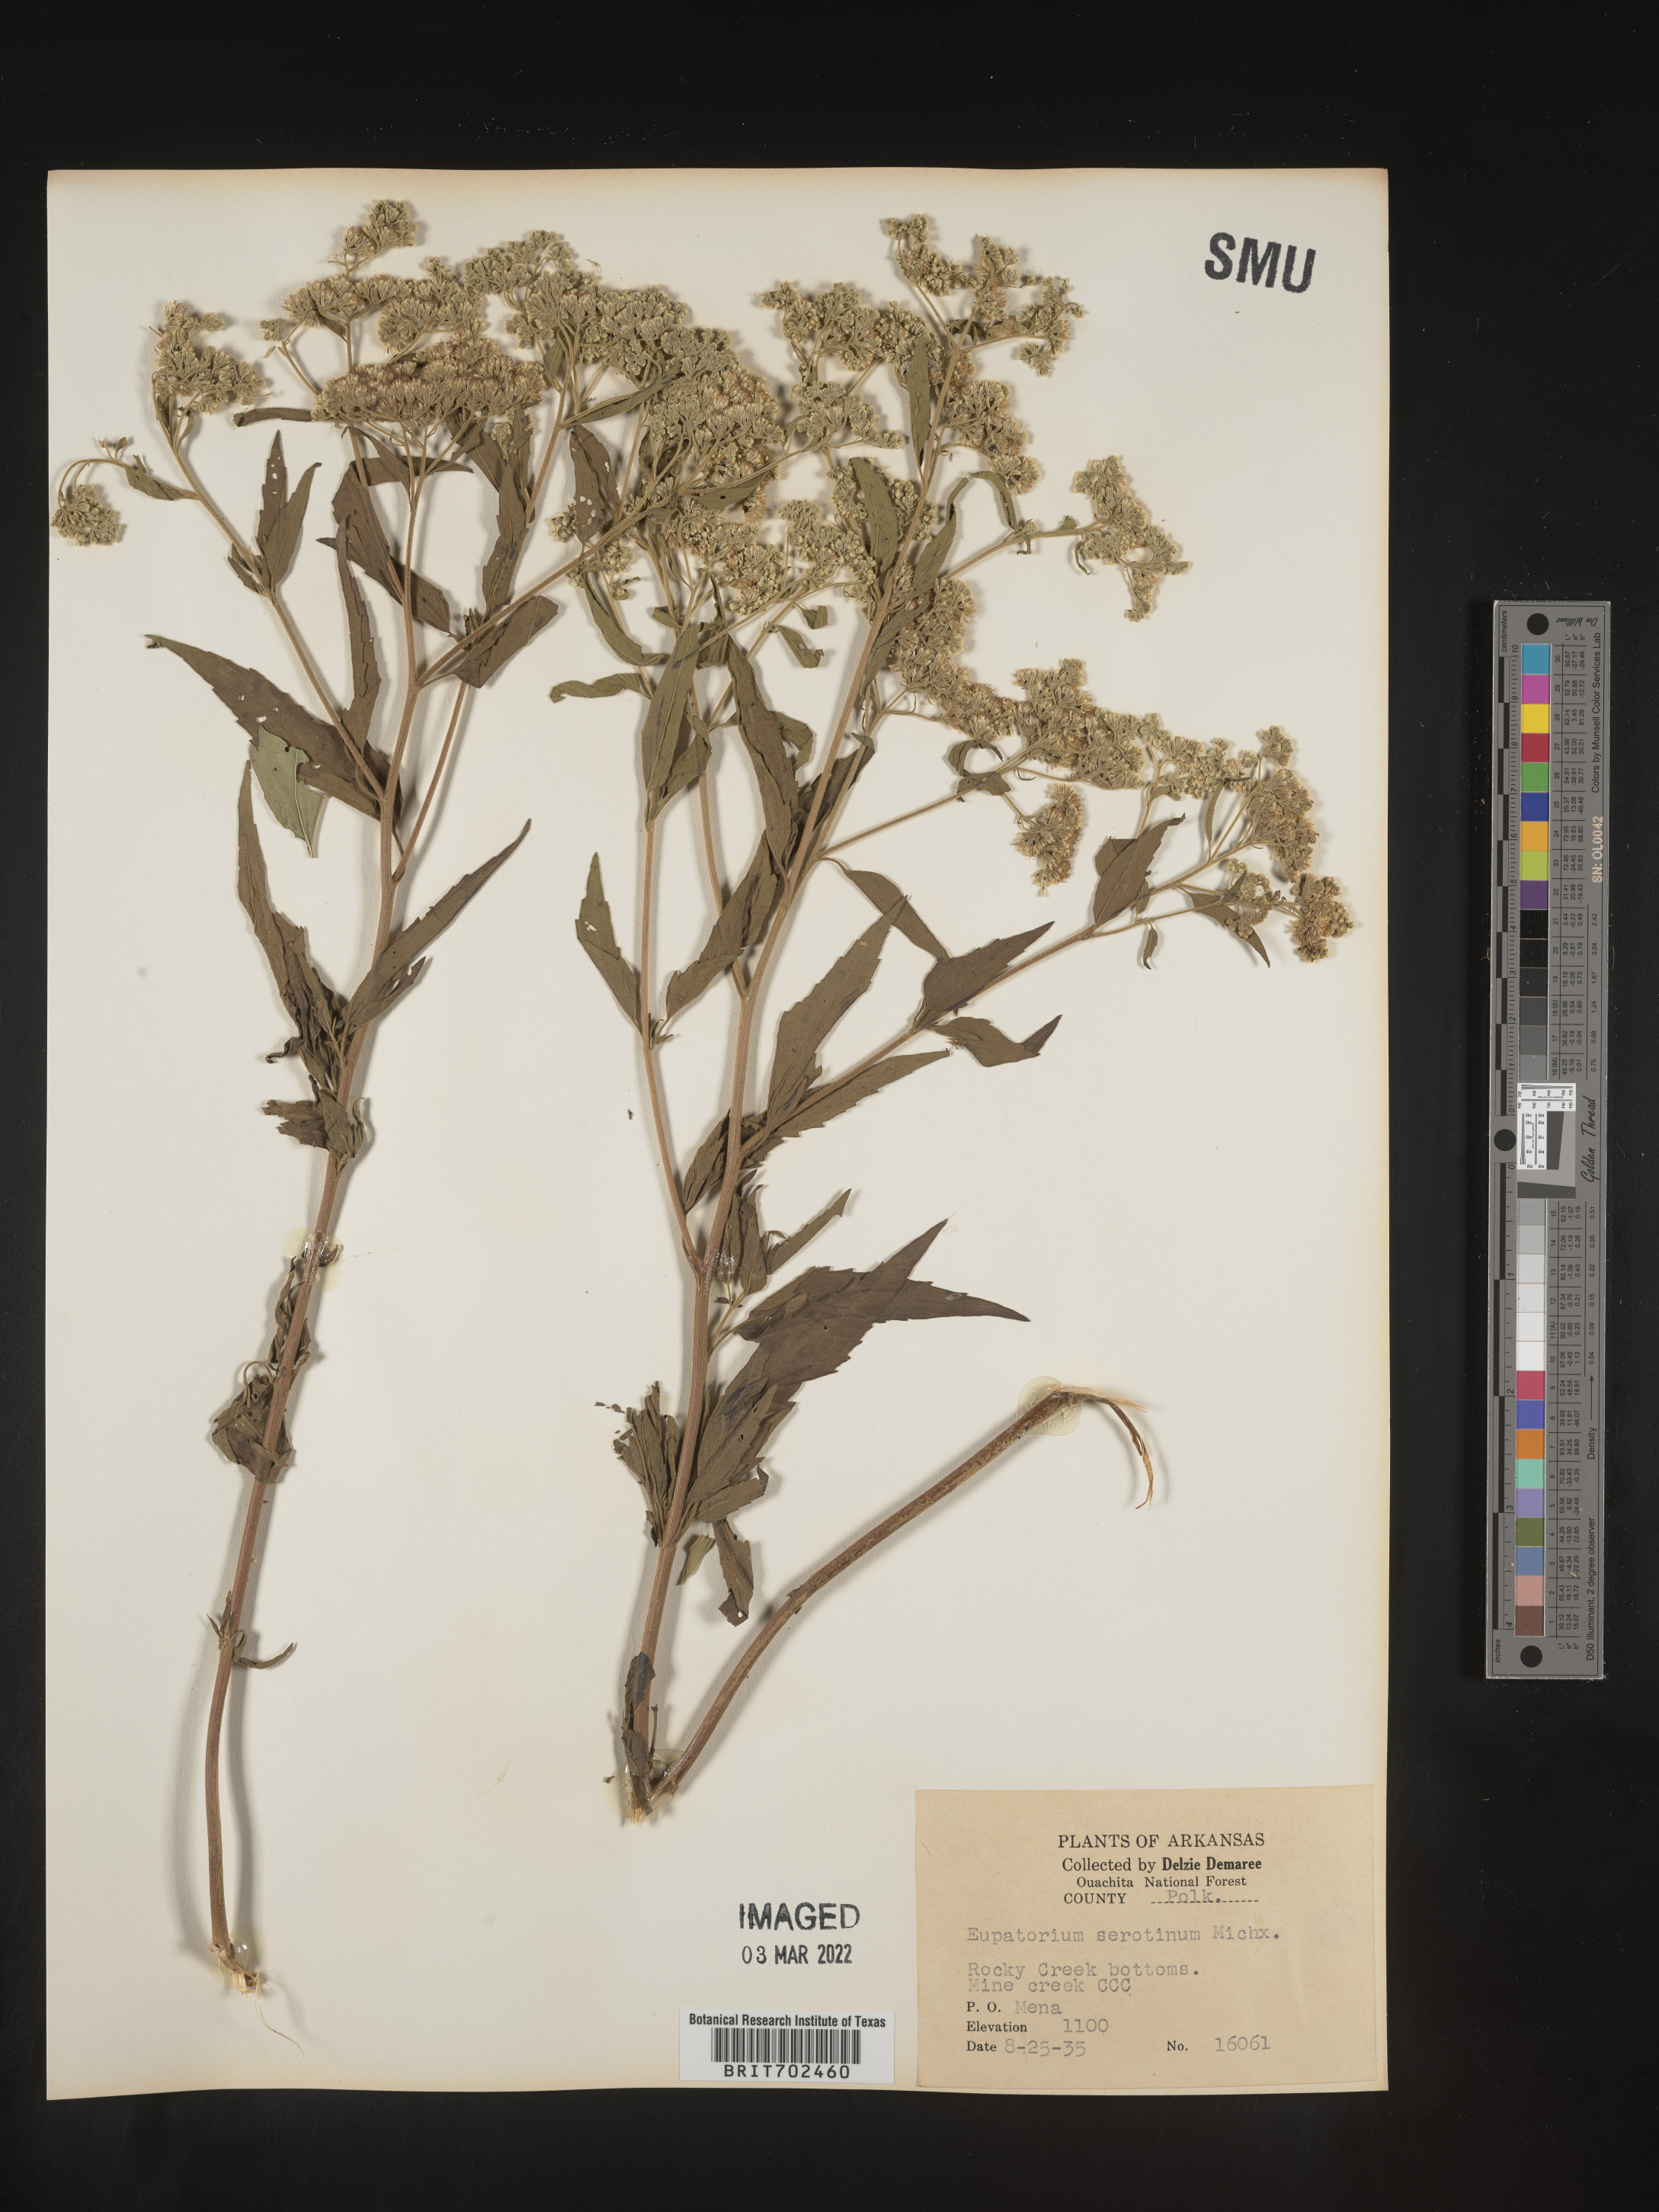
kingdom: Plantae
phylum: Tracheophyta
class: Magnoliopsida
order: Asterales
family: Asteraceae
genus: Eupatorium
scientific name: Eupatorium serotinum
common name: Late boneset
